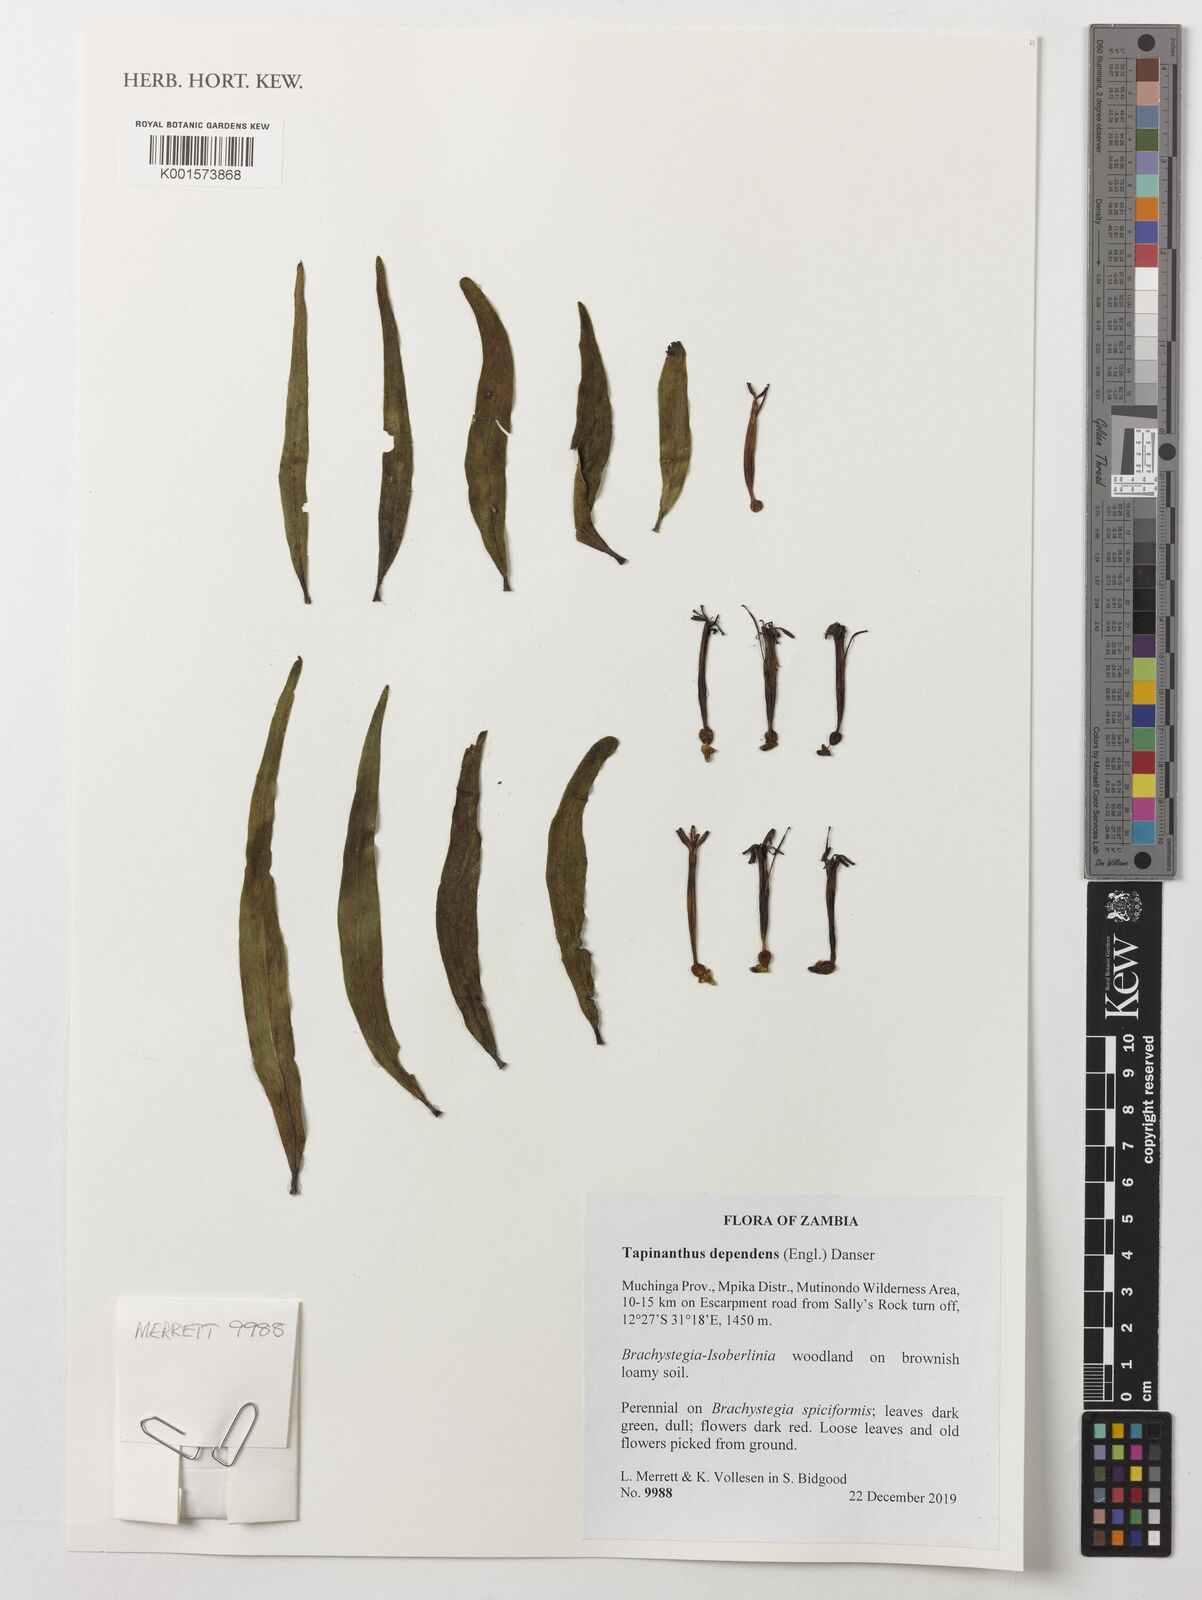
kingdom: Plantae
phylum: Tracheophyta
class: Magnoliopsida
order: Santalales
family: Loranthaceae
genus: Tapinanthus
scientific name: Tapinanthus dependens
